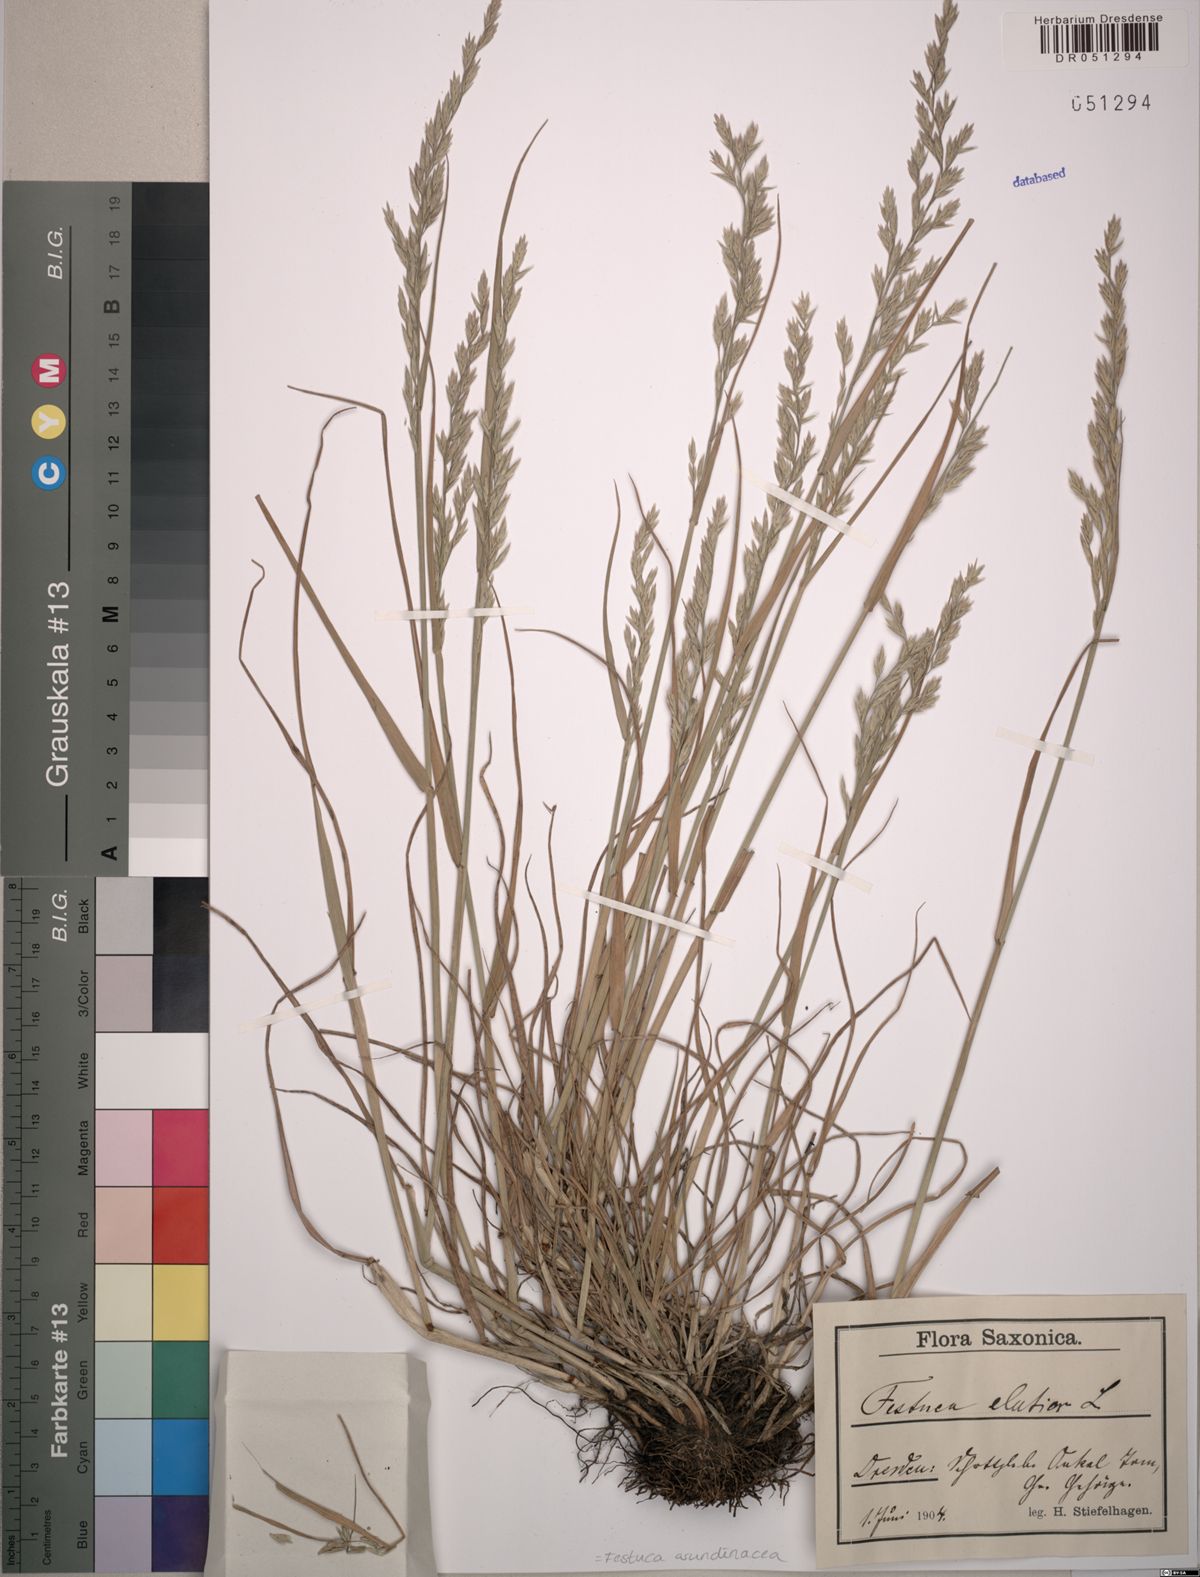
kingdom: Plantae
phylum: Tracheophyta
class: Liliopsida
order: Poales
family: Poaceae
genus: Lolium
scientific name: Lolium arundinaceum
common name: Reed fescue
